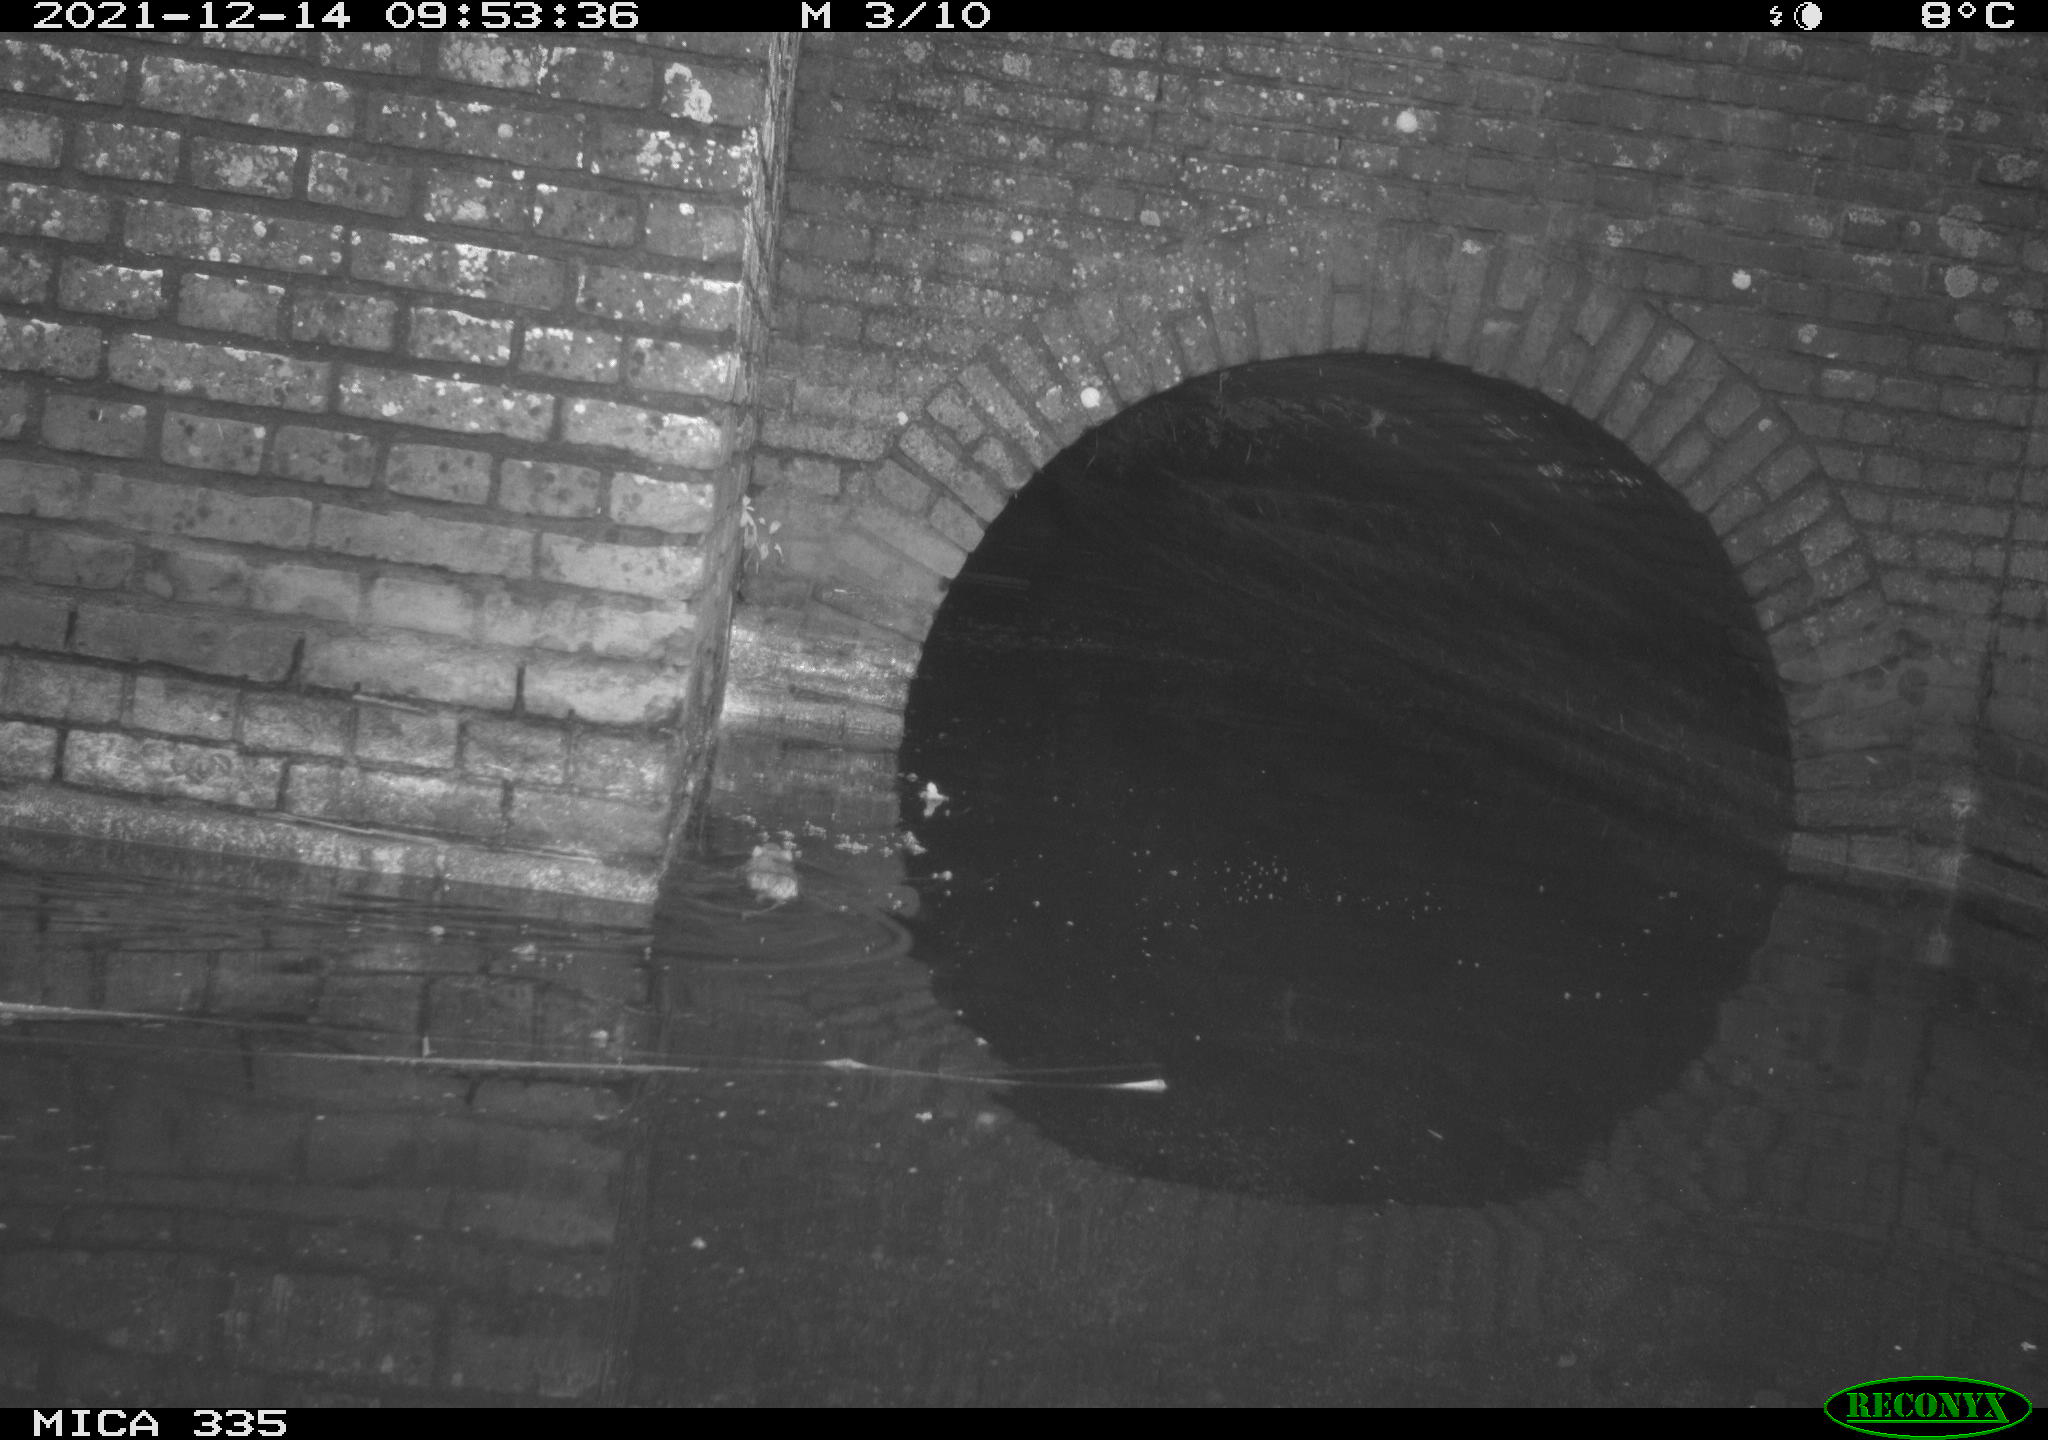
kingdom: Animalia
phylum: Chordata
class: Mammalia
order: Rodentia
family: Muridae
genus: Rattus
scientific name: Rattus norvegicus
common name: Brown rat
